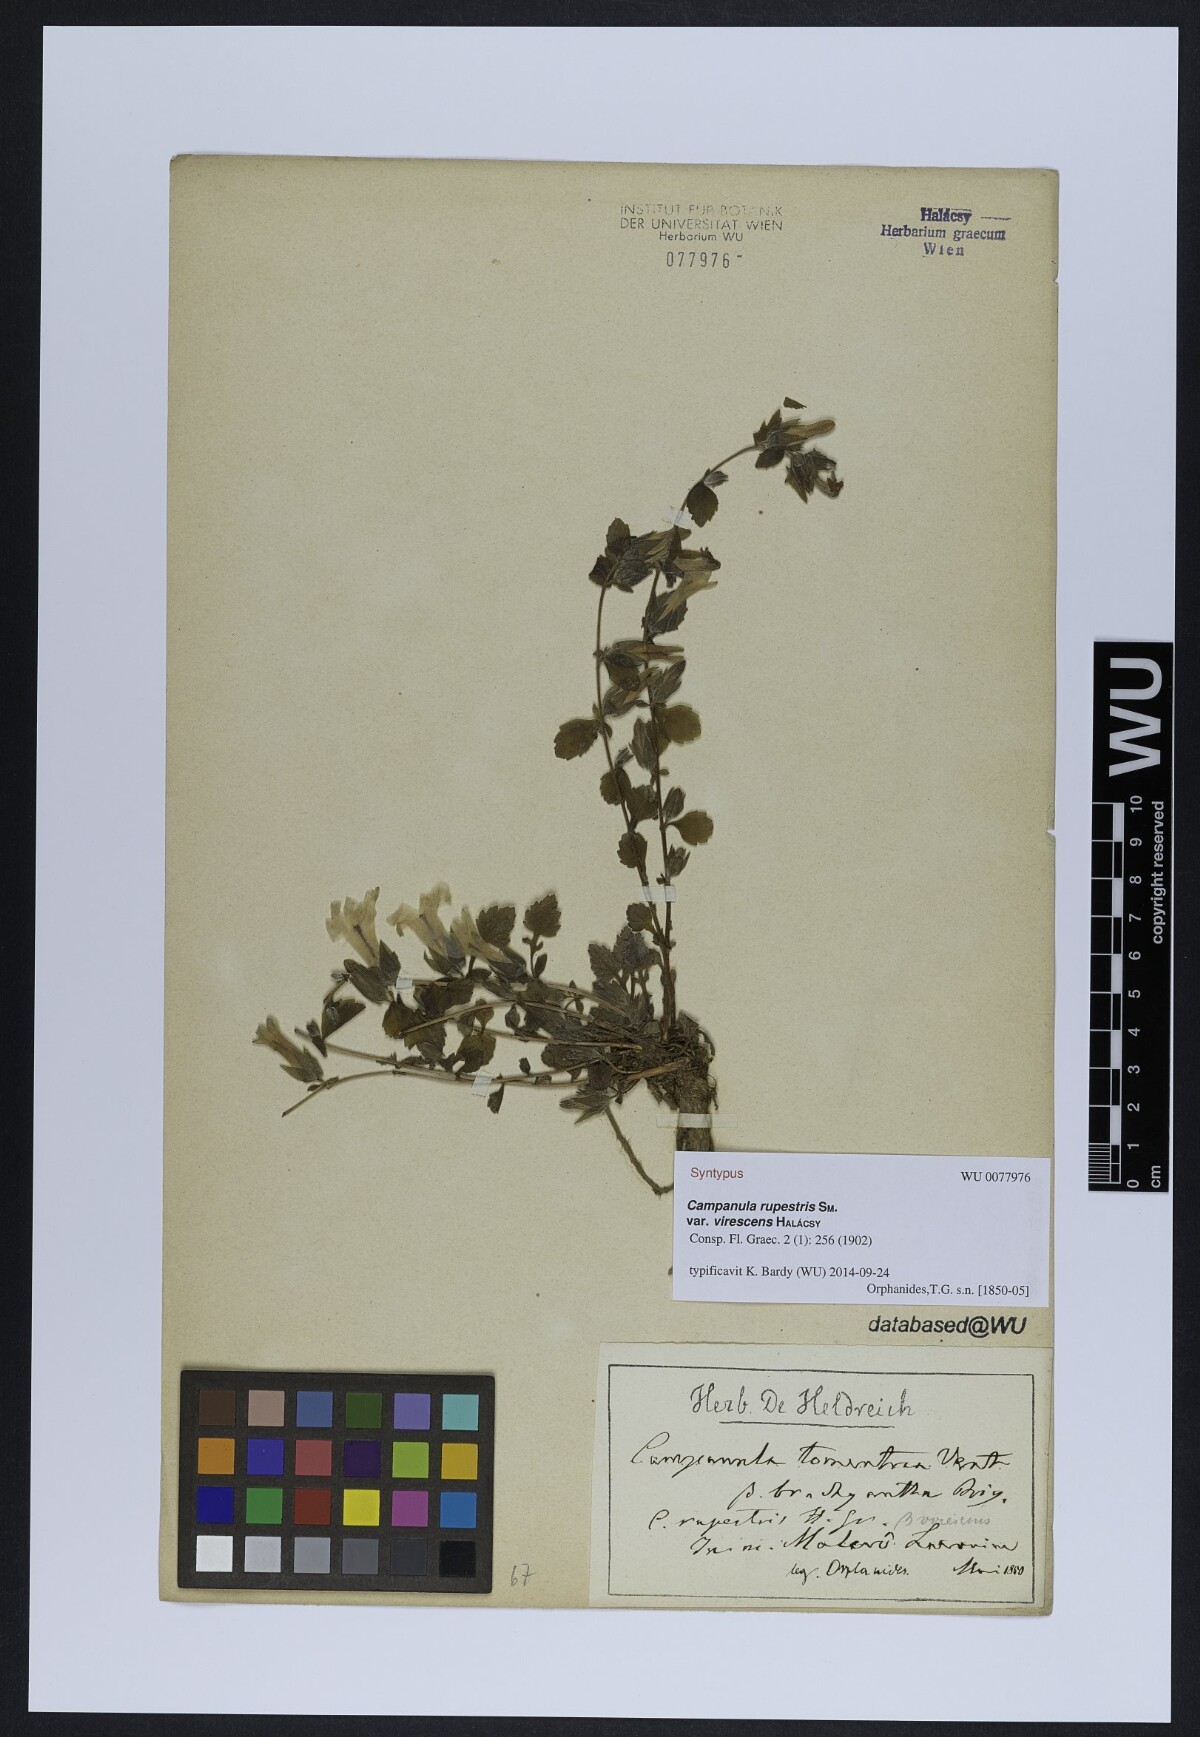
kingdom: Plantae
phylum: Tracheophyta
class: Magnoliopsida
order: Asterales
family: Campanulaceae
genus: Campanula
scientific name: Campanula constantini
